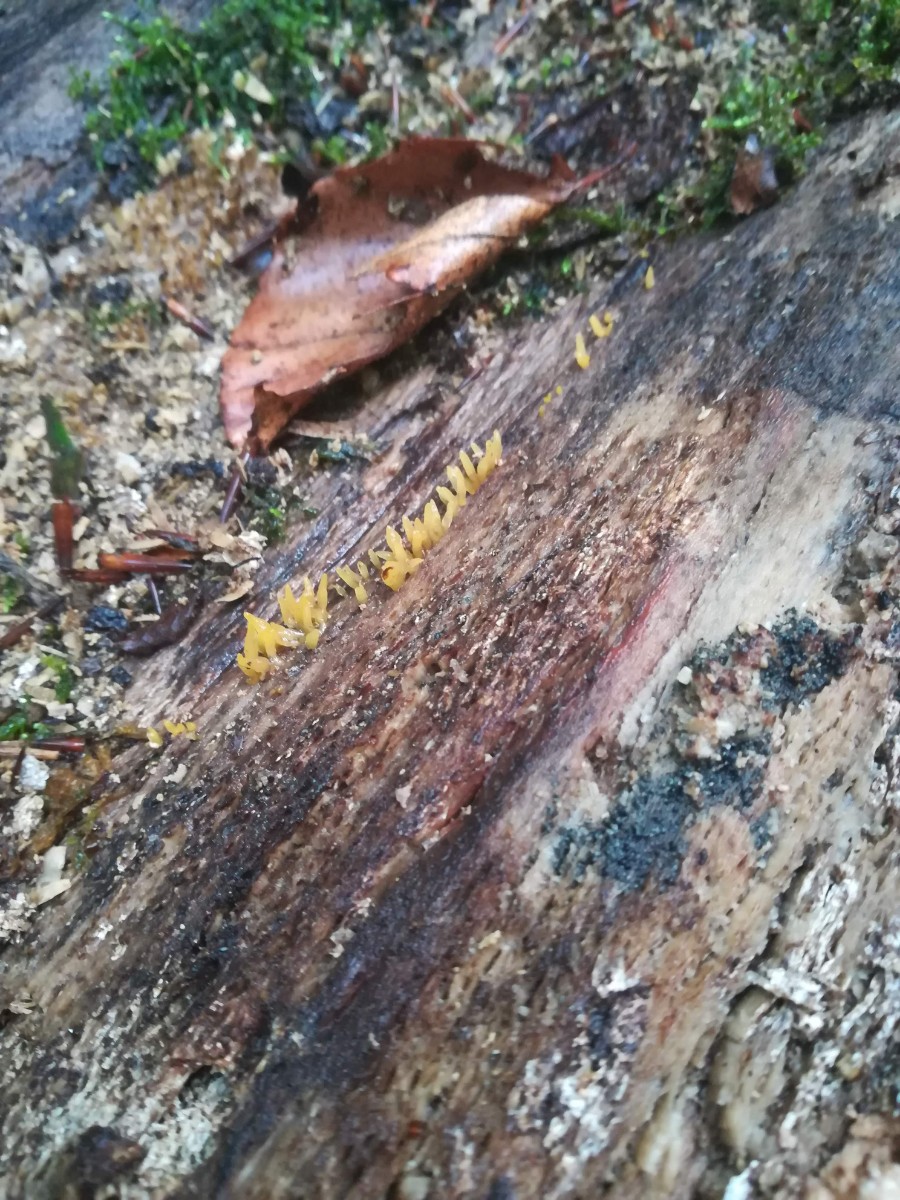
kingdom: Fungi
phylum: Basidiomycota
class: Dacrymycetes
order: Dacrymycetales
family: Dacrymycetaceae
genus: Calocera
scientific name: Calocera cornea
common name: liden guldgaffel
